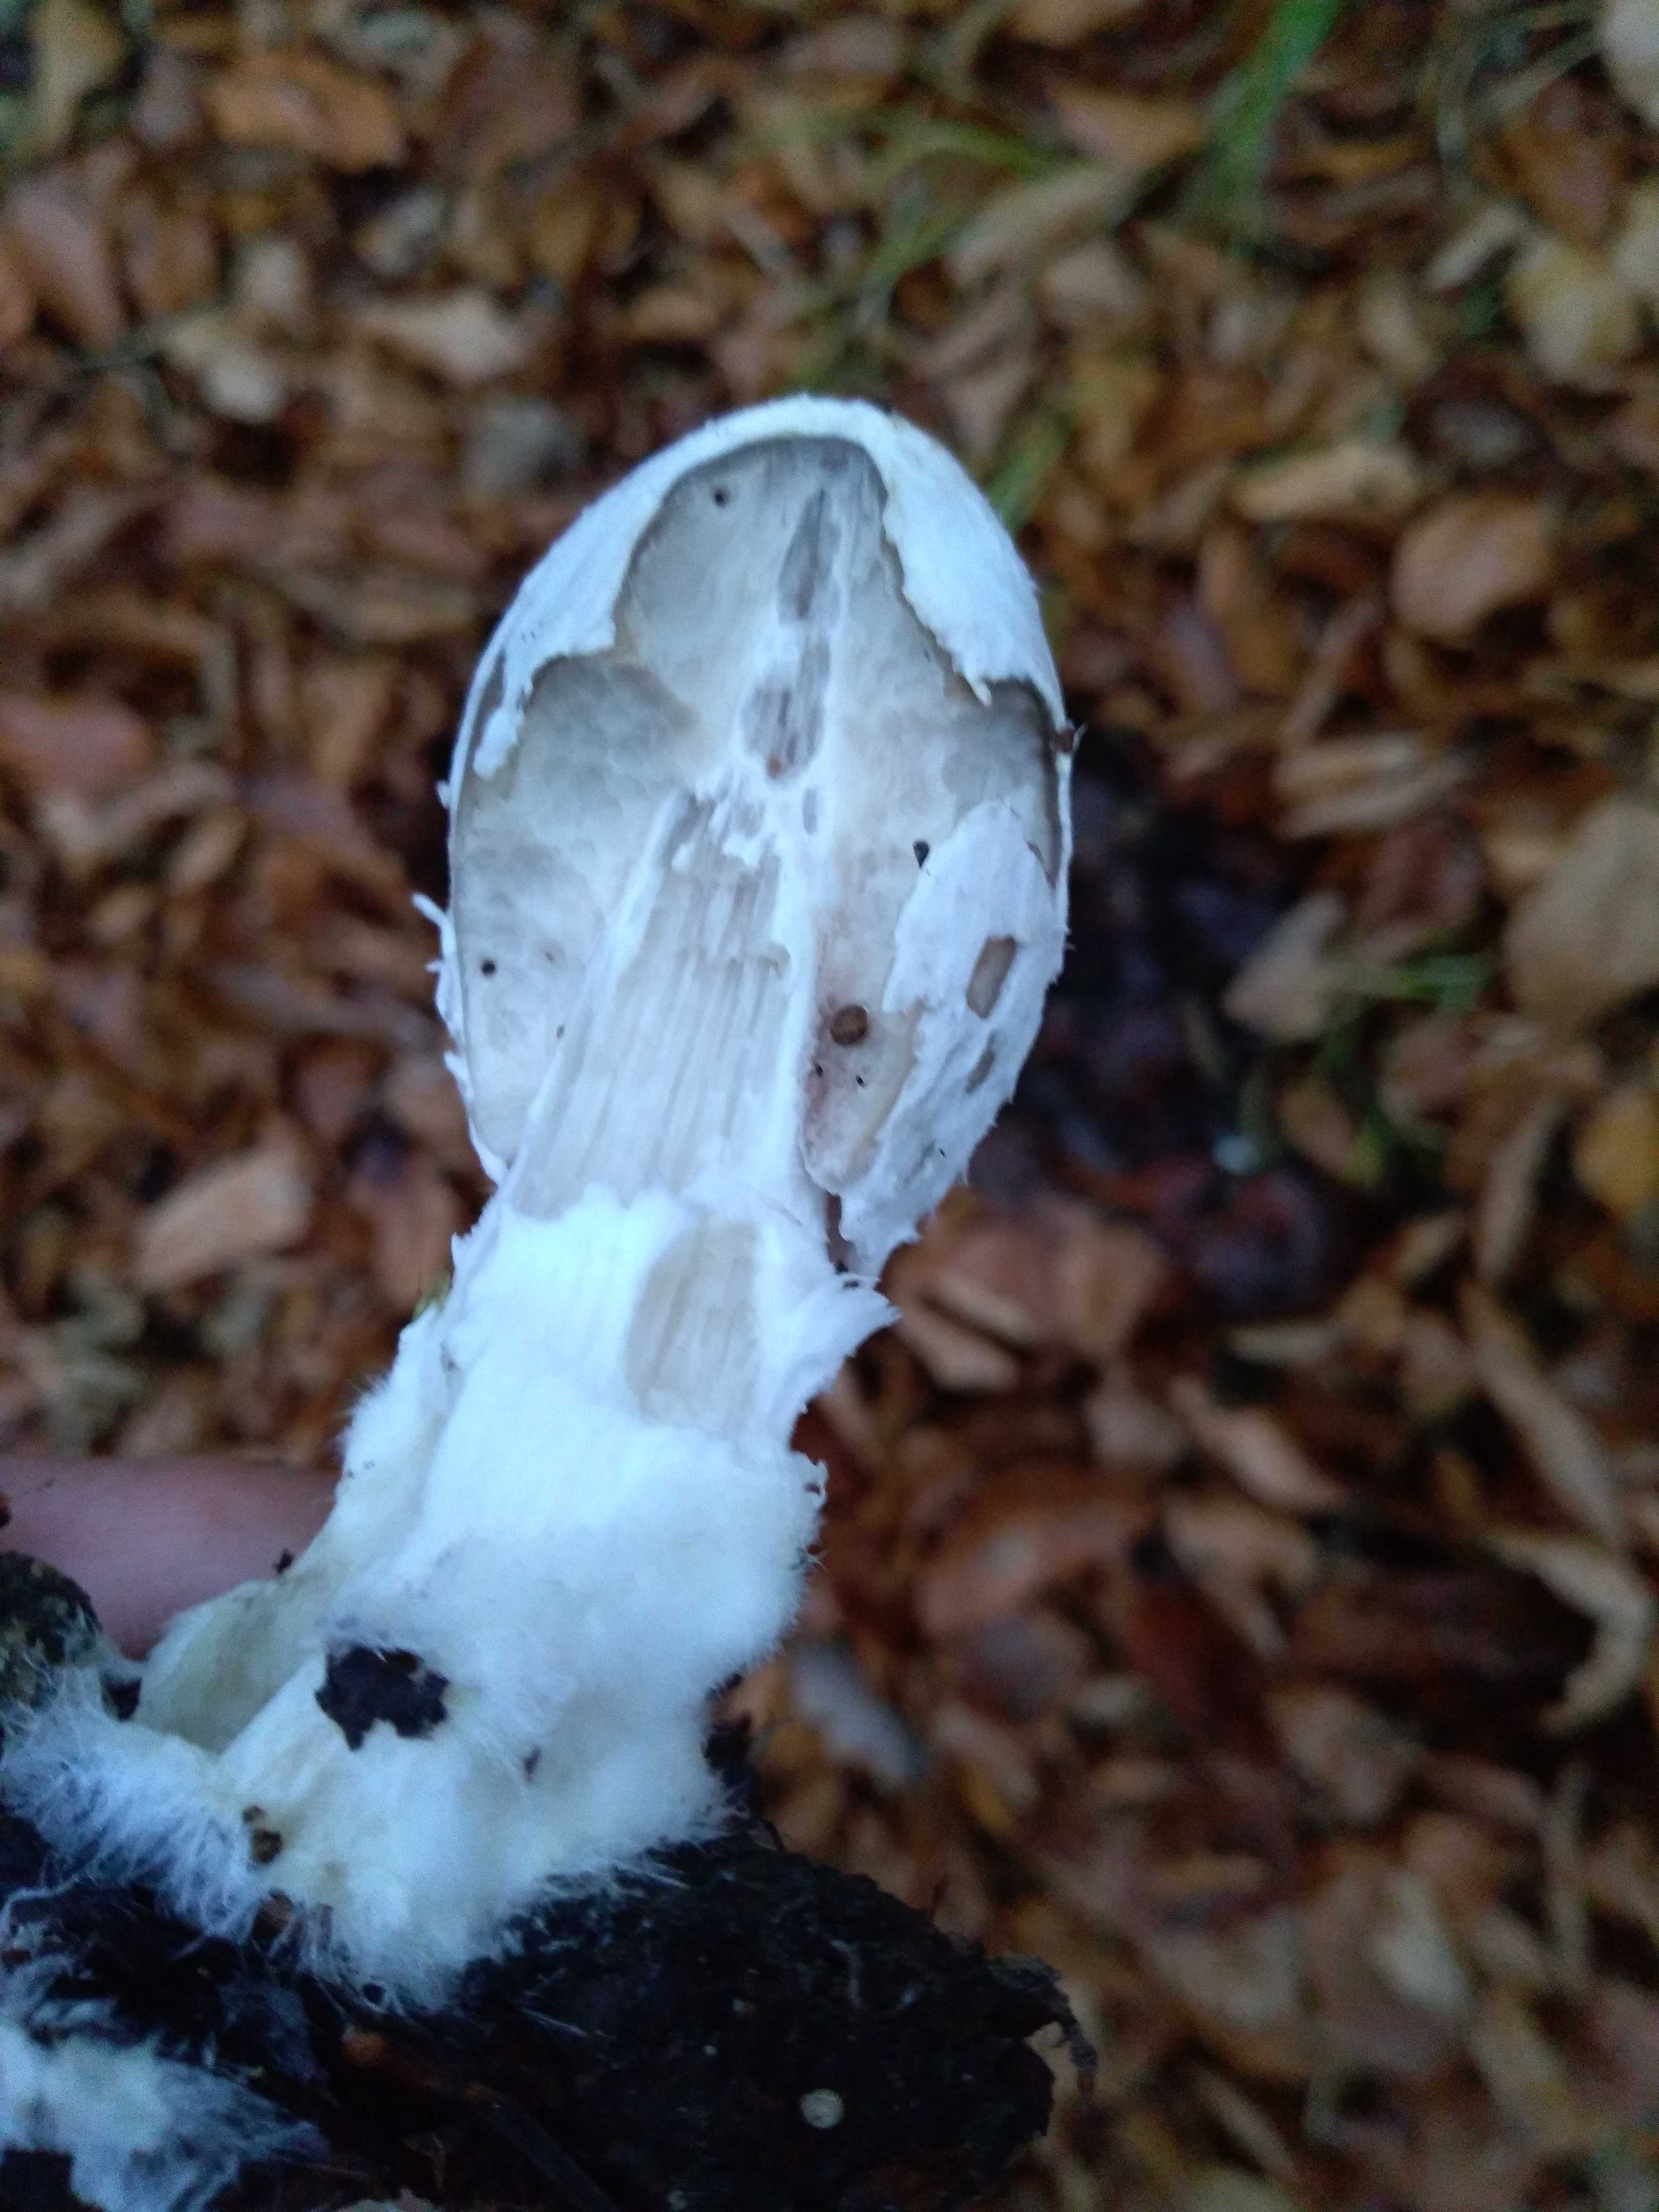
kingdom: Fungi
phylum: Basidiomycota
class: Agaricomycetes
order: Agaricales
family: Psathyrellaceae
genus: Coprinopsis
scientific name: Coprinopsis picacea
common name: skade-blækhat
